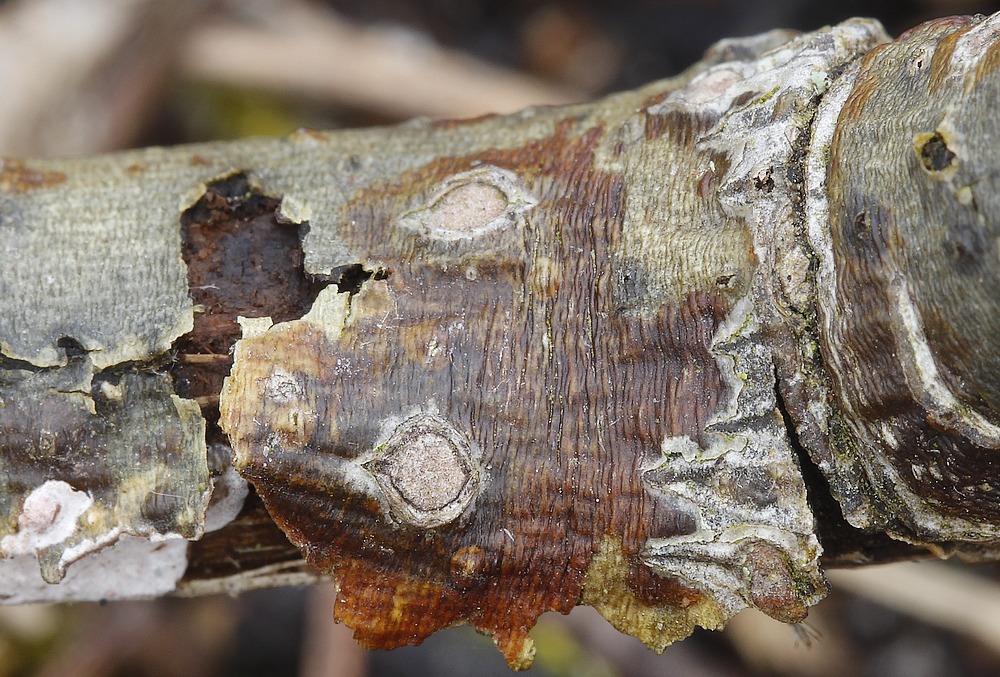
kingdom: Fungi
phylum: Basidiomycota
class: Agaricomycetes
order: Russulales
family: Peniophoraceae
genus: Peniophora
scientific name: Peniophora polygonia
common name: polygon-voksskind
